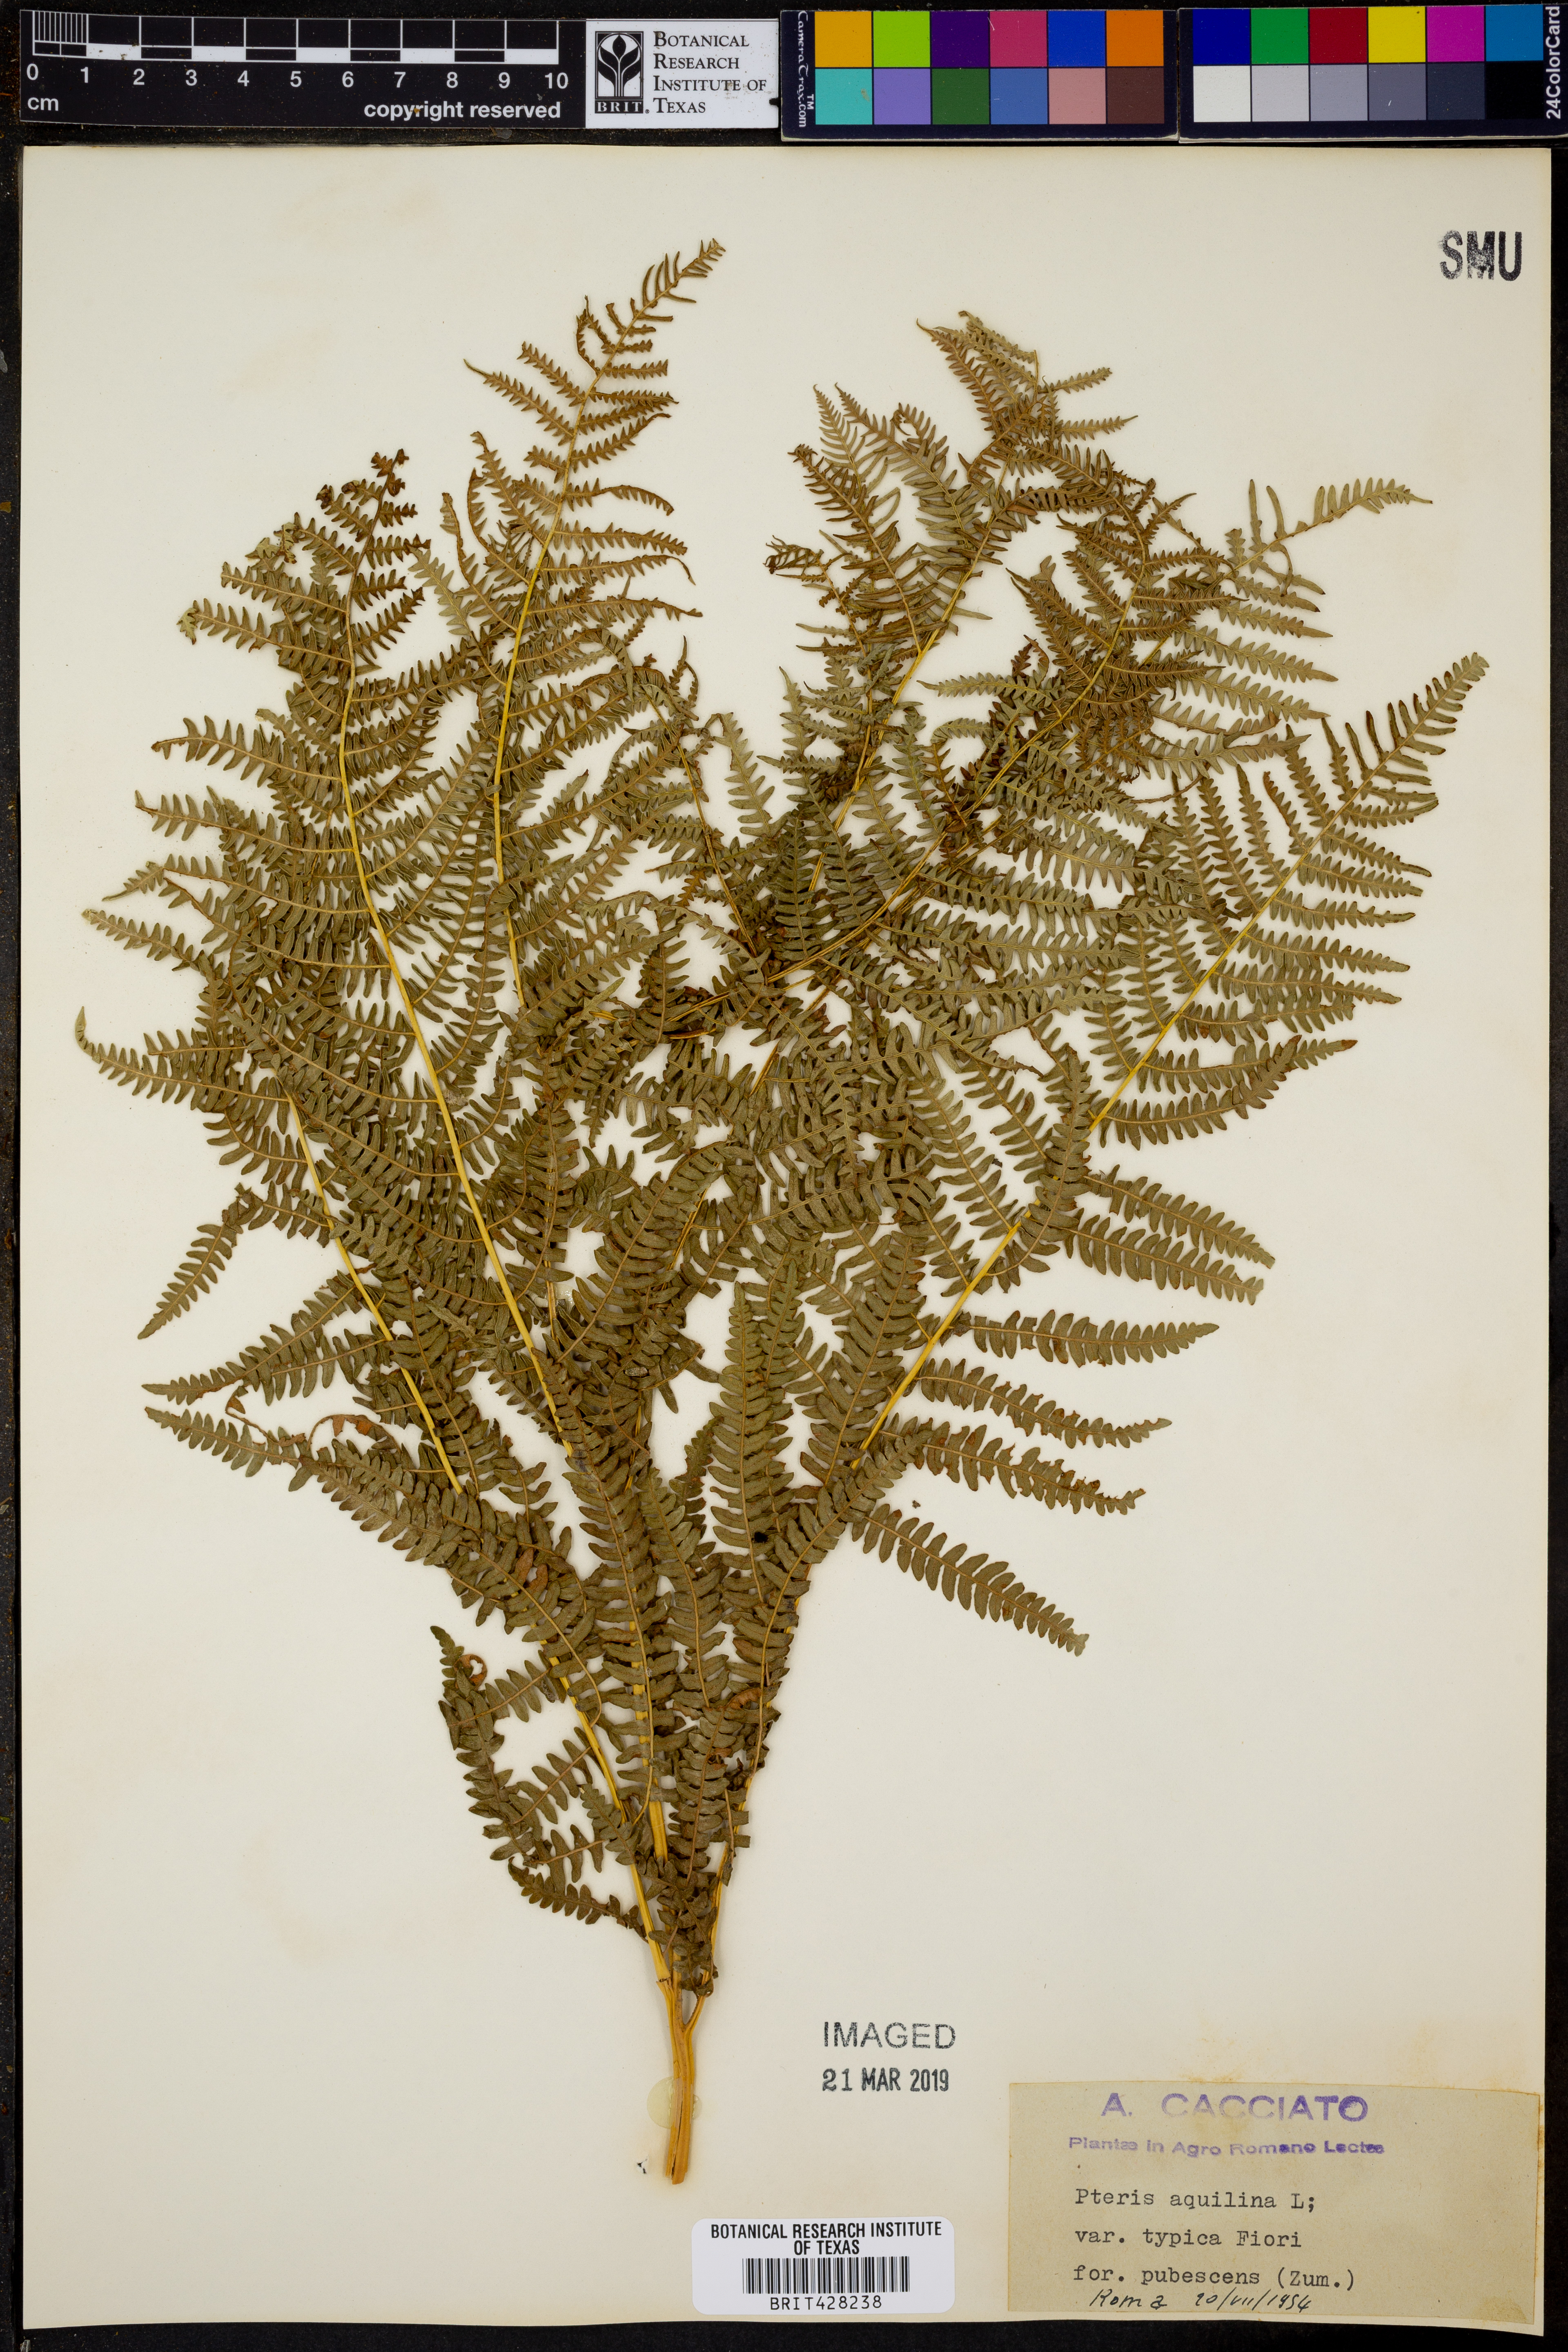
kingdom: Plantae
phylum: Tracheophyta
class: Polypodiopsida
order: Polypodiales
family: Dennstaedtiaceae
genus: Pteridium
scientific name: Pteridium aquilinum
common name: Bracken
